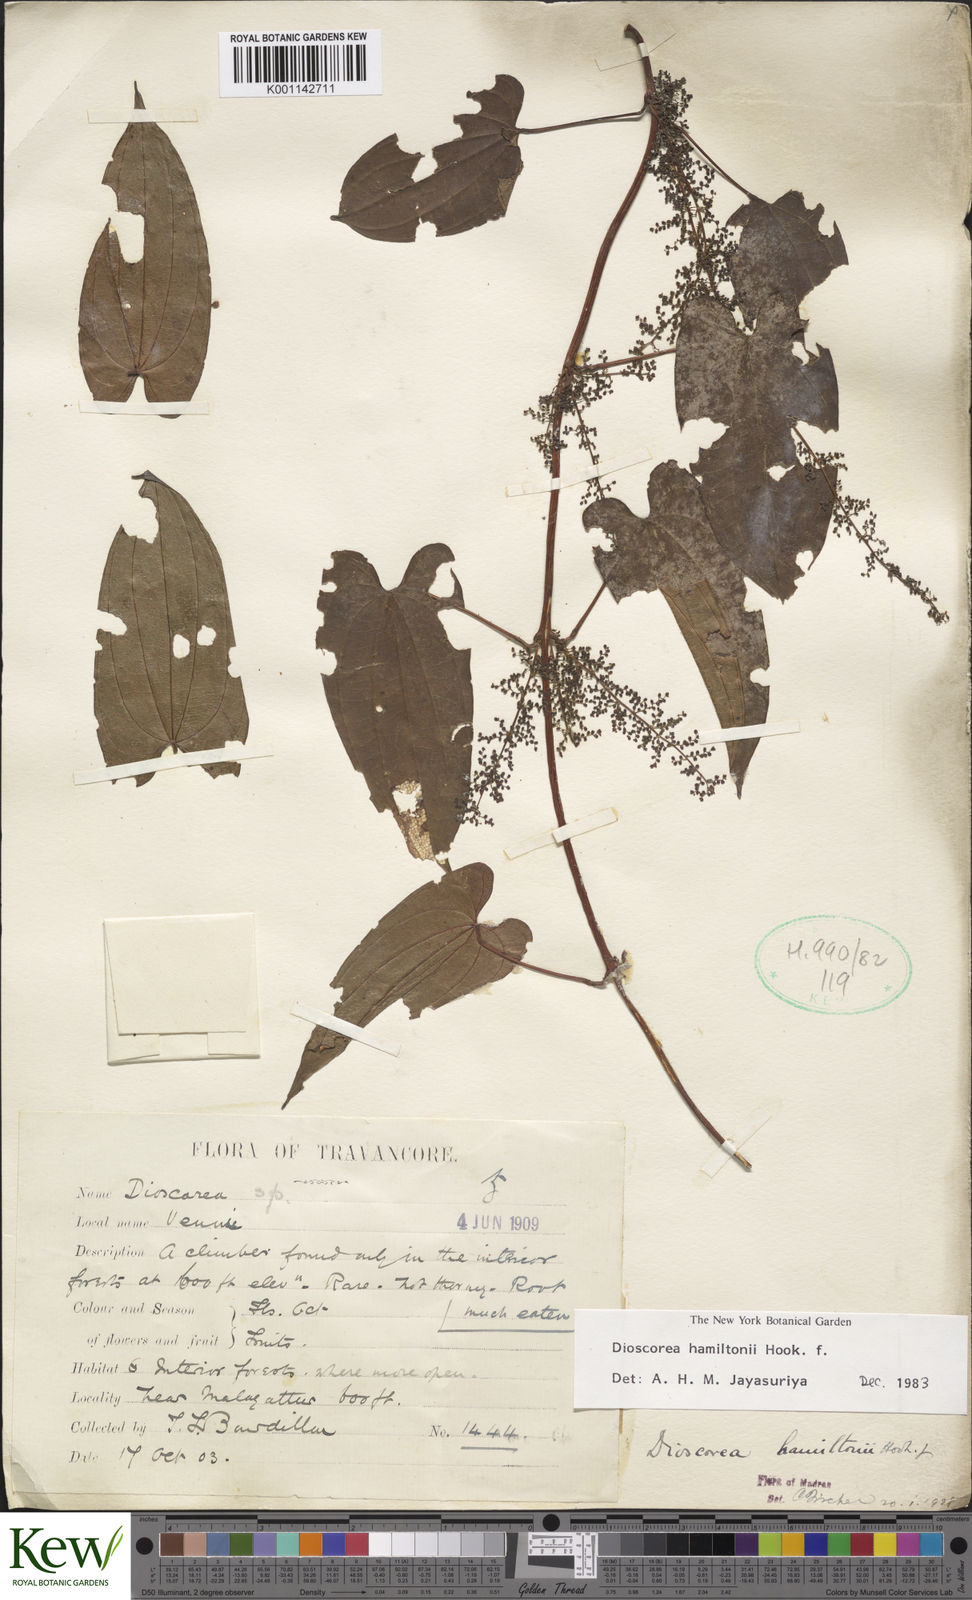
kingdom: Plantae
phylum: Tracheophyta
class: Liliopsida
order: Dioscoreales
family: Dioscoreaceae
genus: Dioscorea
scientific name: Dioscorea hamiltonii
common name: Mountain yam
